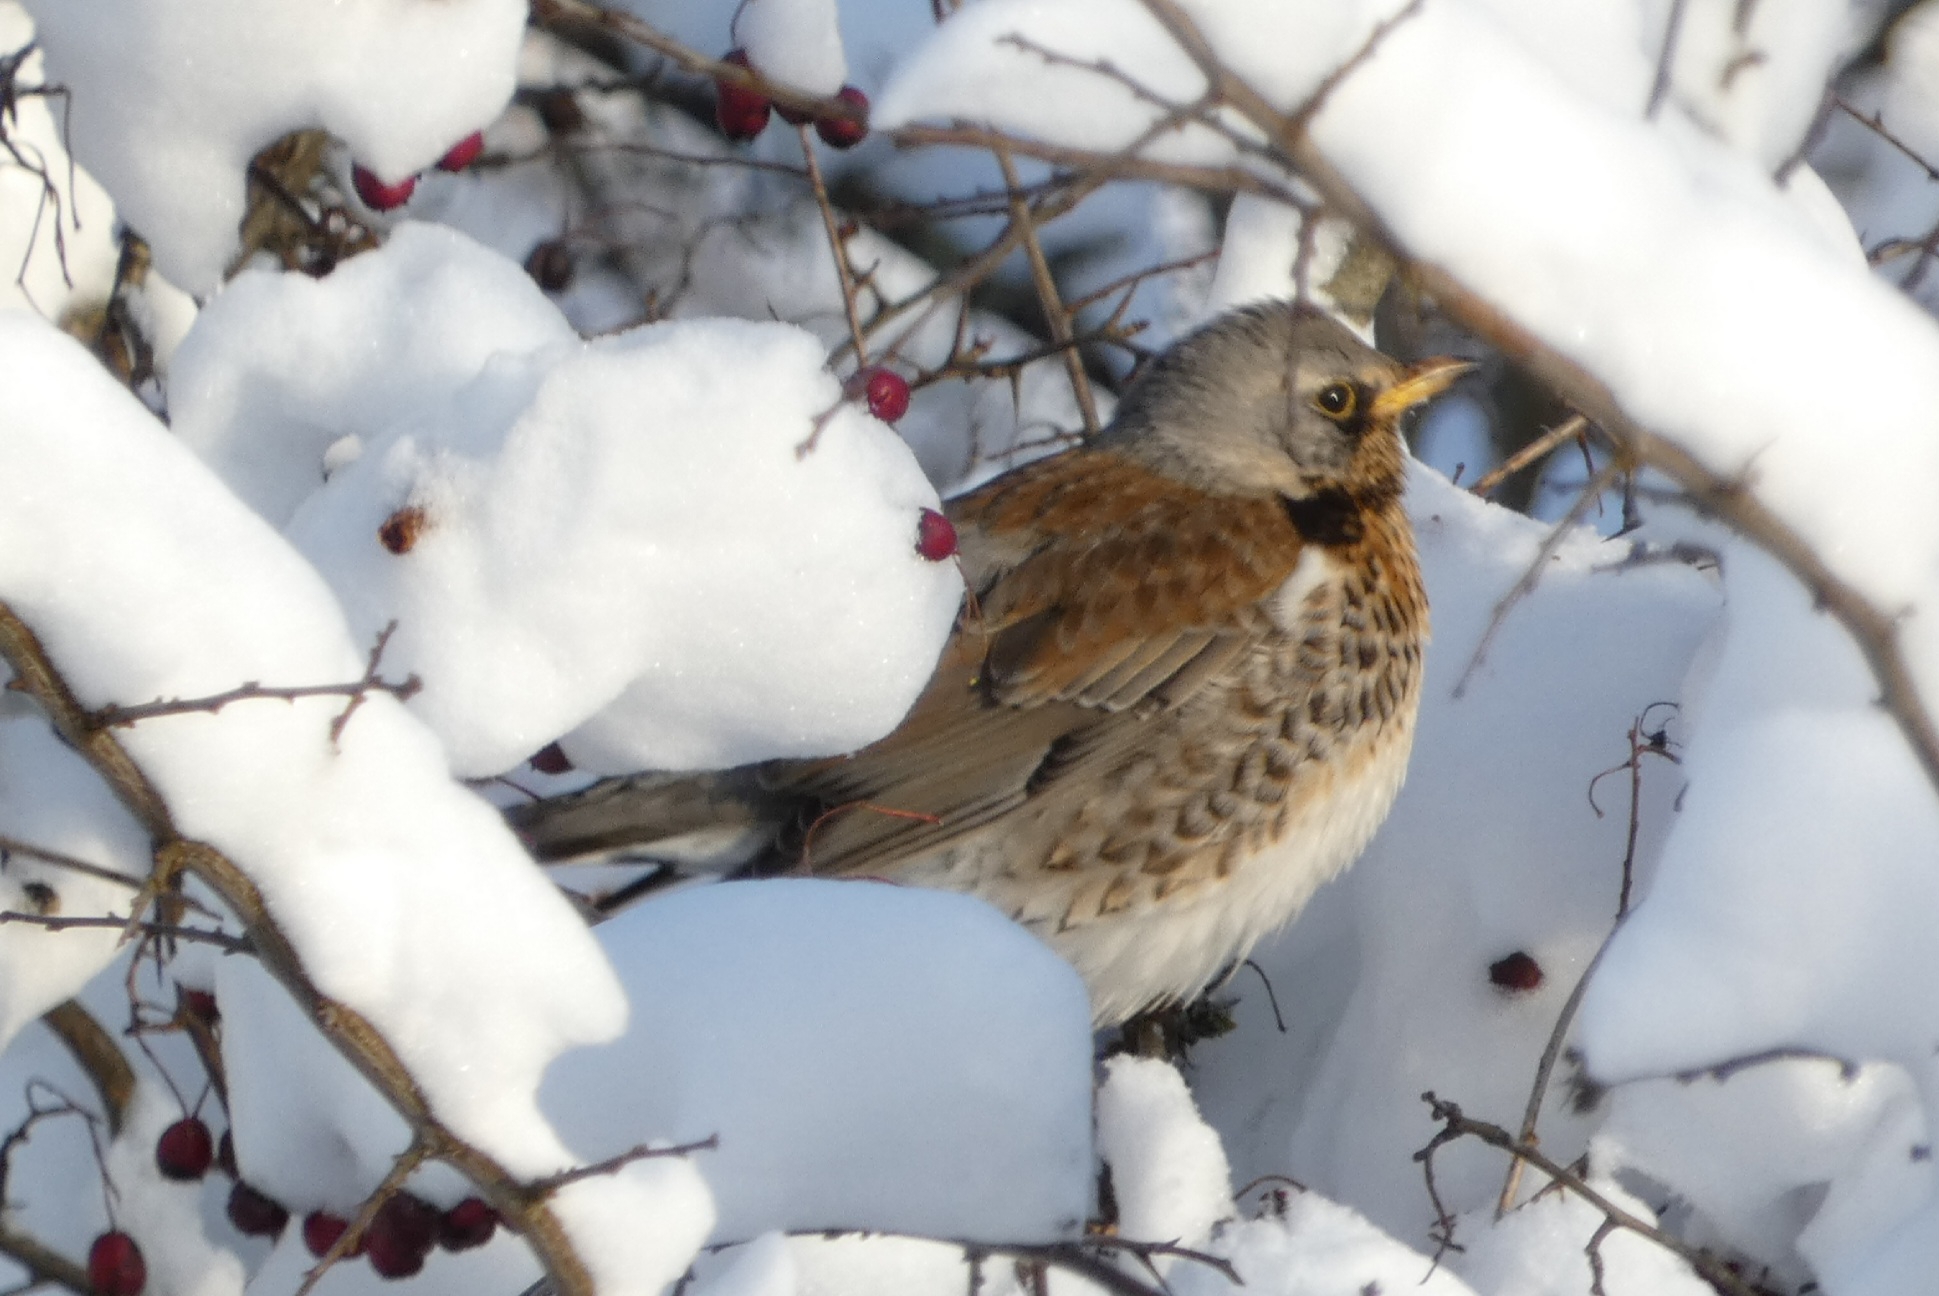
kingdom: Animalia
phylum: Chordata
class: Aves
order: Passeriformes
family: Turdidae
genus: Turdus
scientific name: Turdus pilaris
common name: Sjagger
